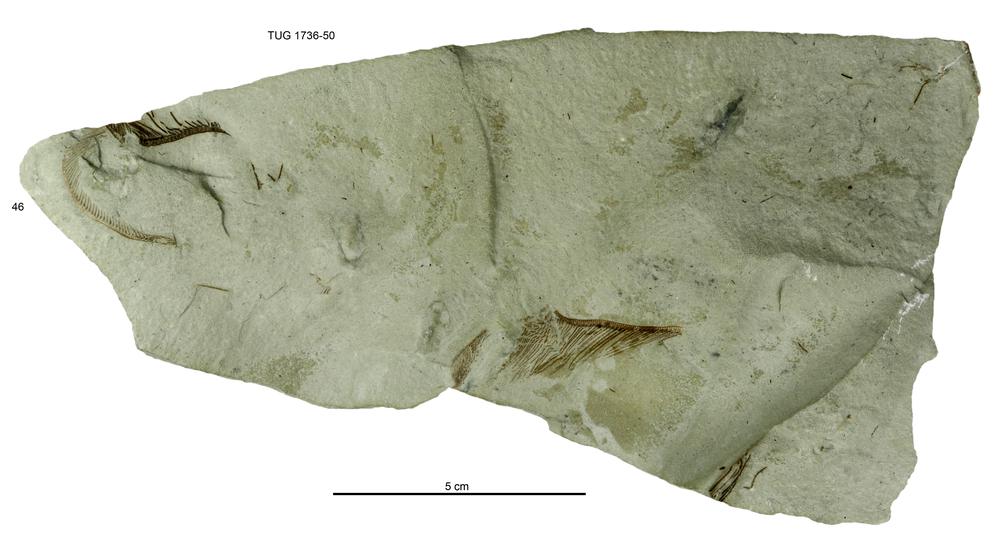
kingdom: Animalia
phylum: Echinodermata
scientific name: Echinodermata
